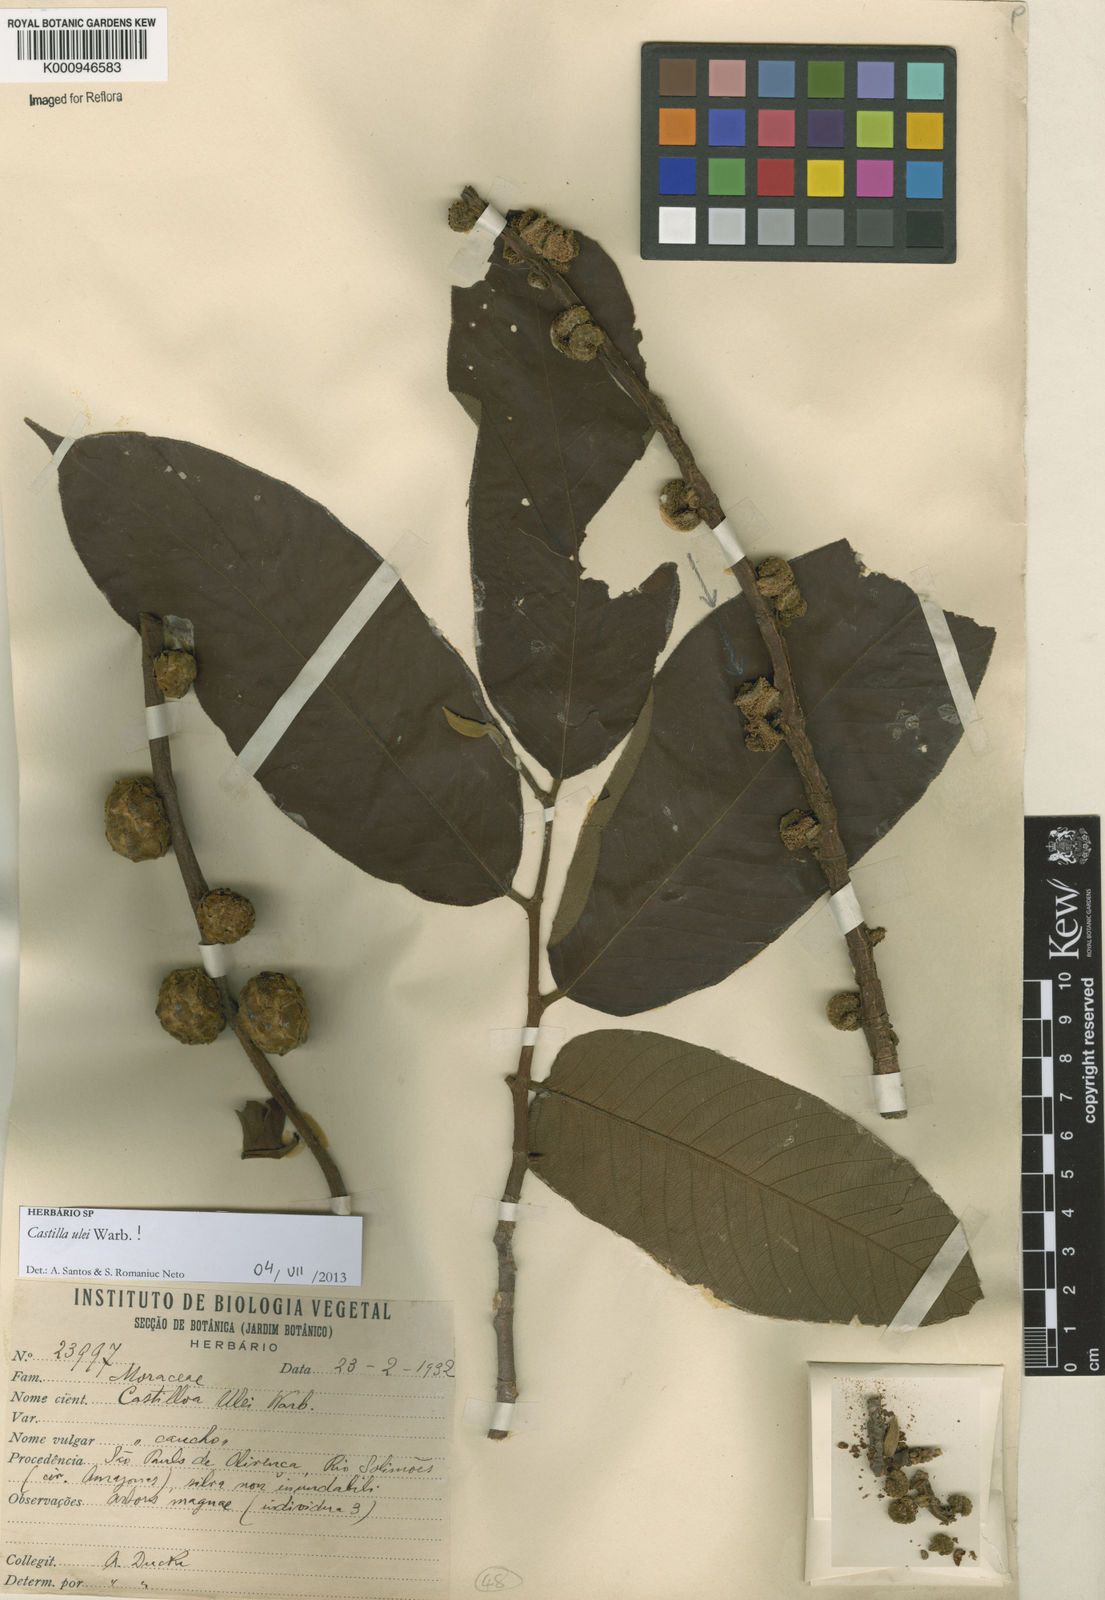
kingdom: Plantae
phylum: Tracheophyta
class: Magnoliopsida
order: Rosales
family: Moraceae
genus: Castilla
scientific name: Castilla ulei
